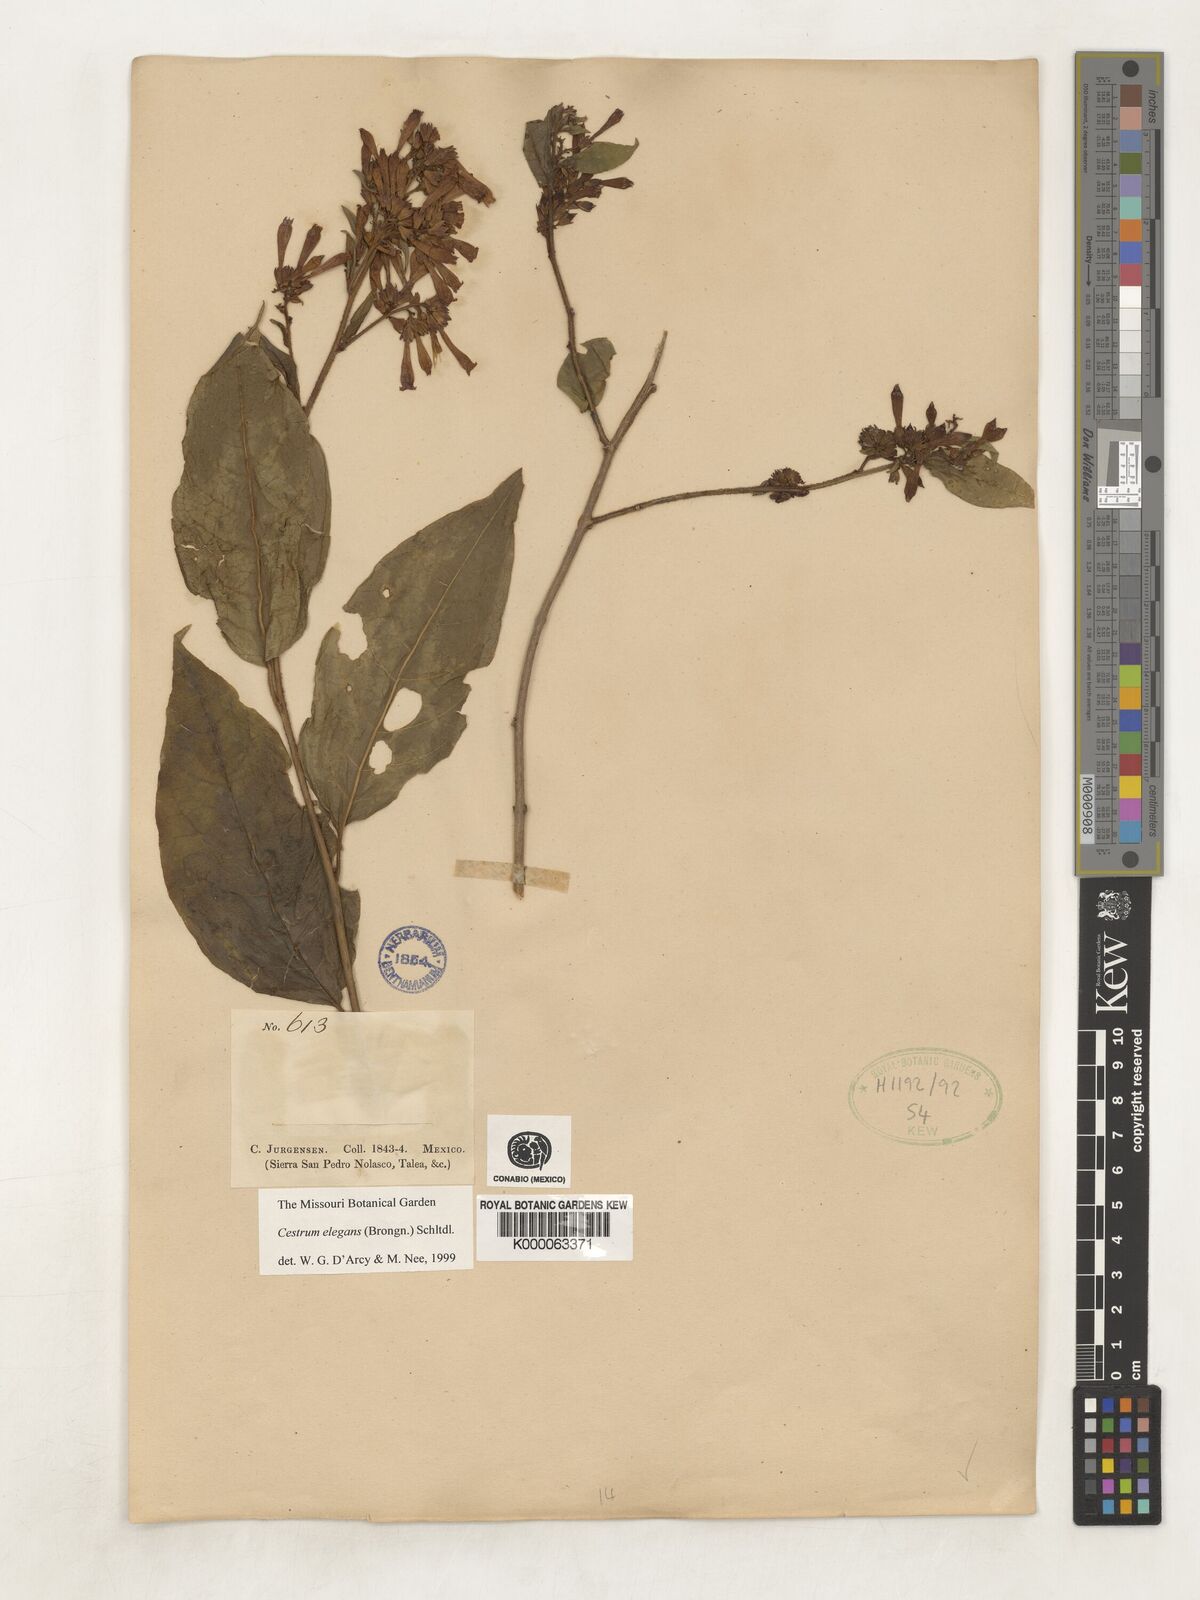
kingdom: Plantae
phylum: Tracheophyta
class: Magnoliopsida
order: Solanales
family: Solanaceae
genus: Cestrum
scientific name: Cestrum elegans
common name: Crimson cestrum
